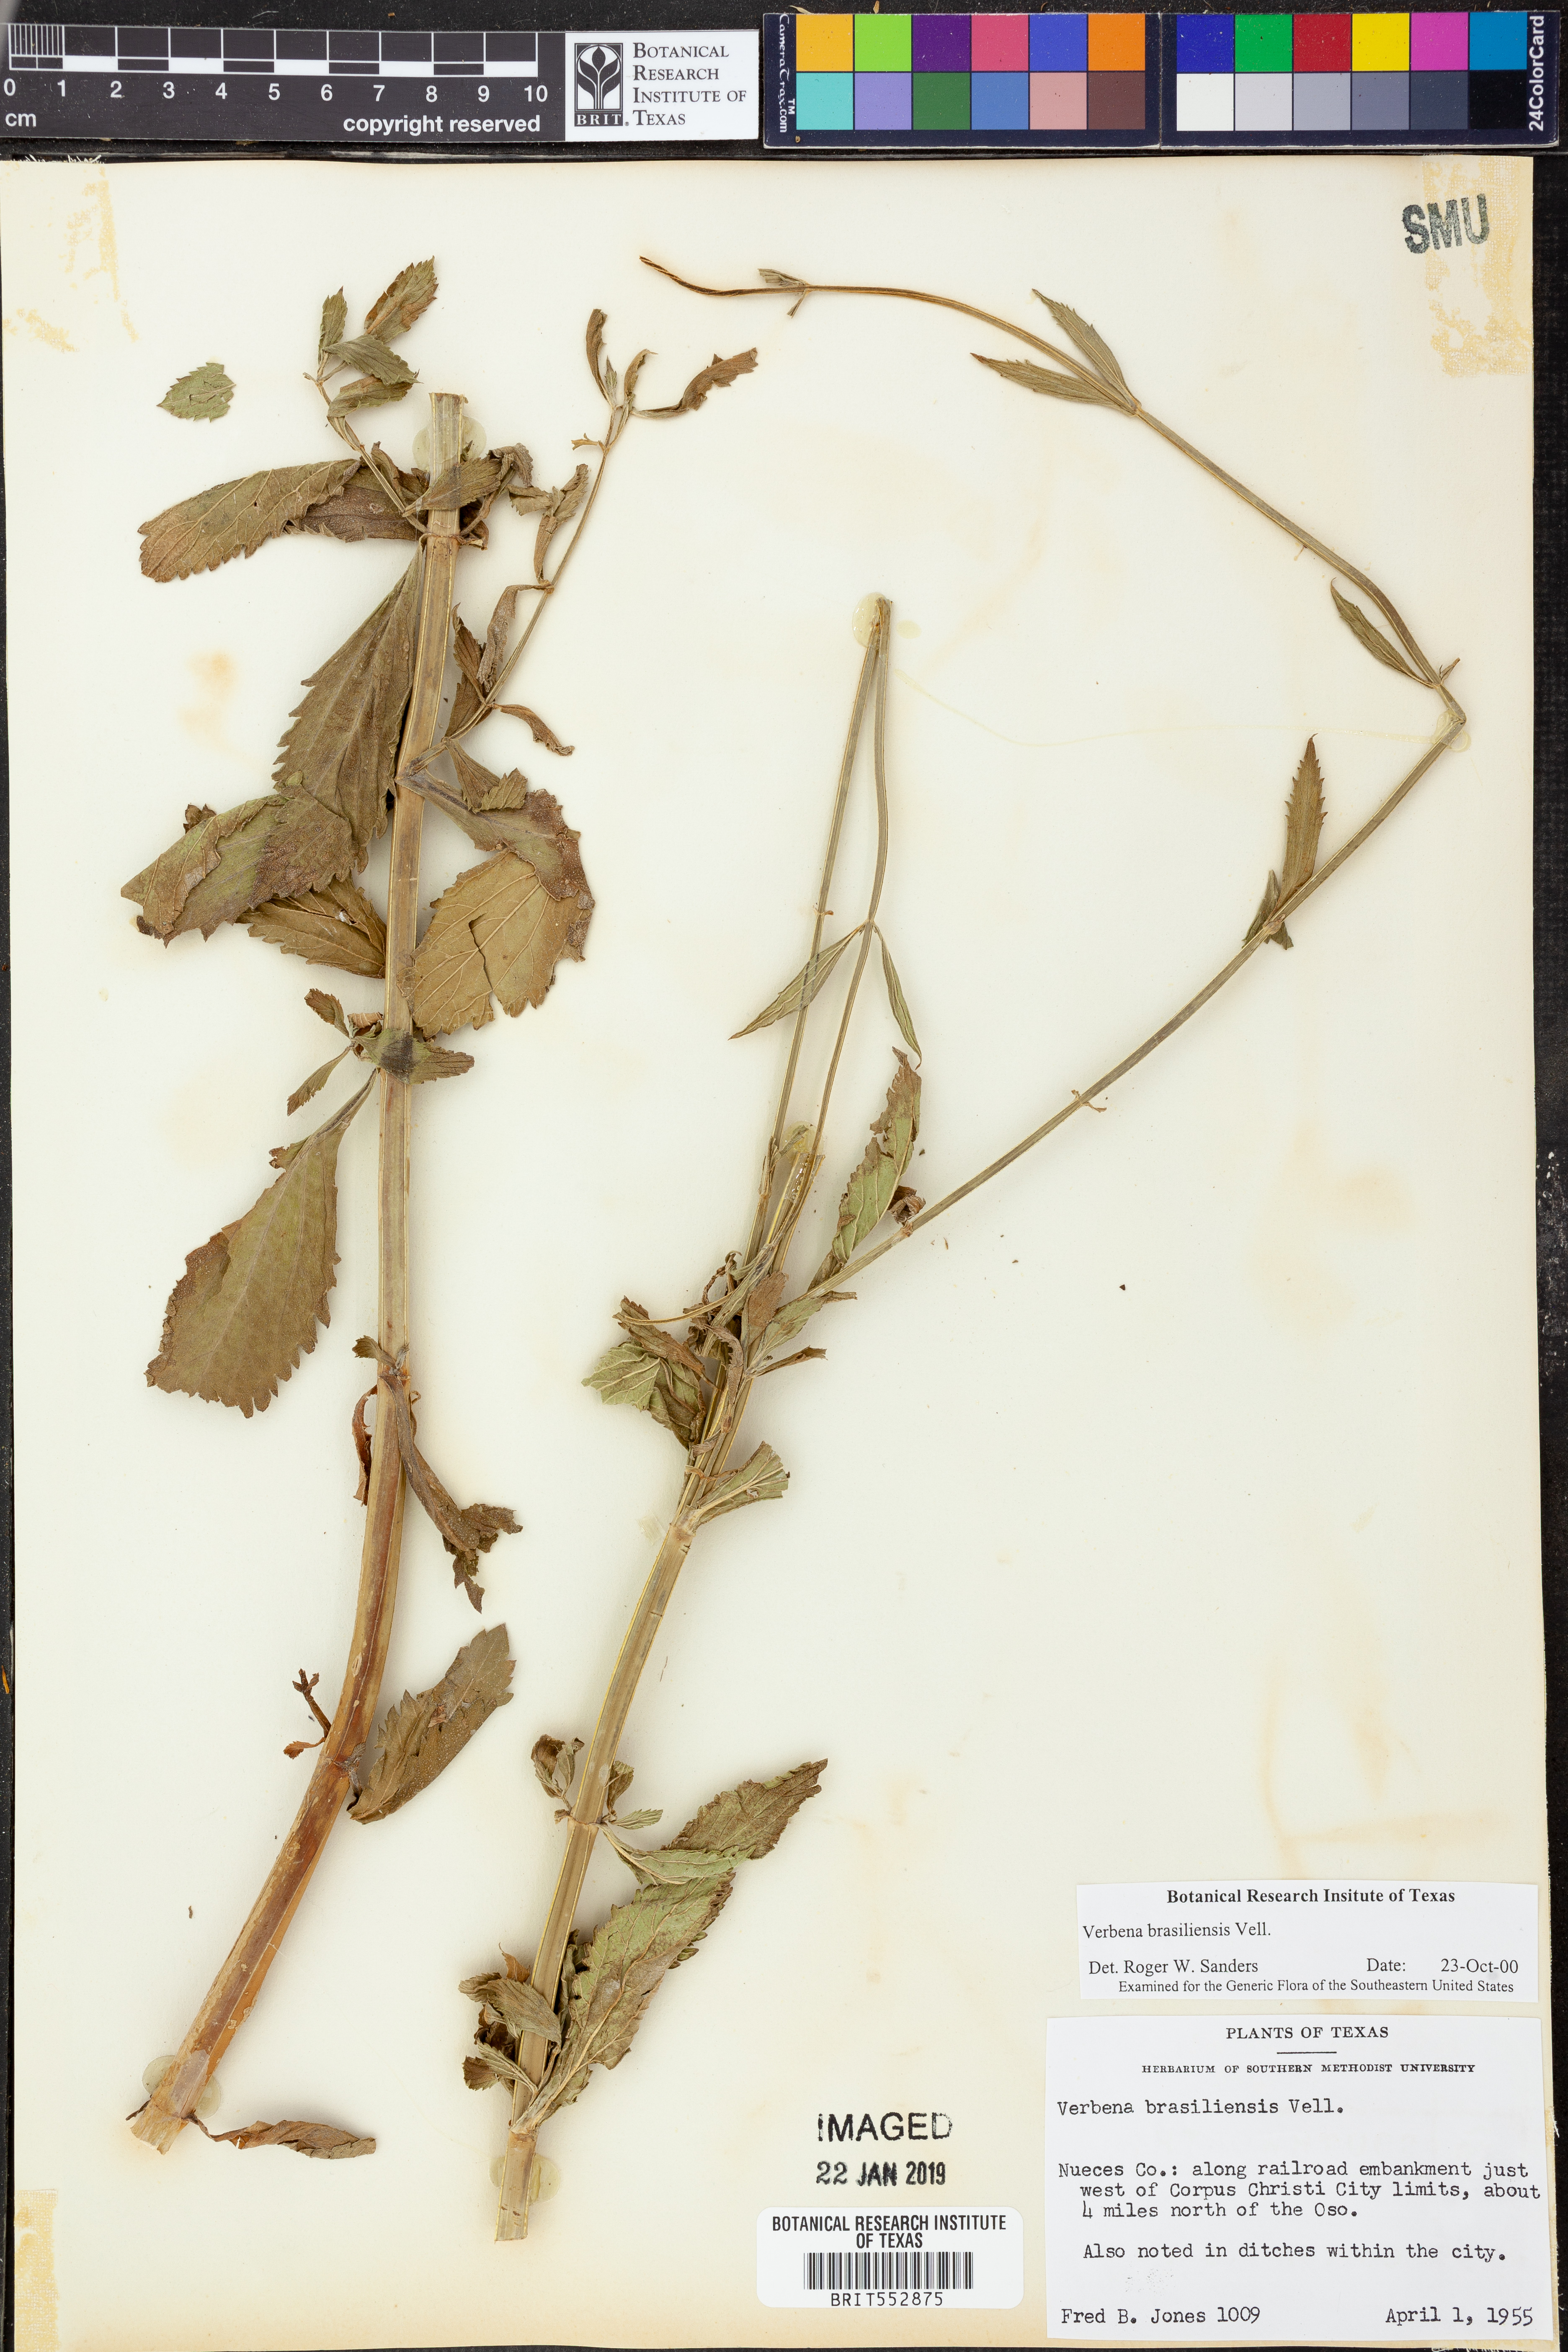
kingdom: Plantae
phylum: Tracheophyta
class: Magnoliopsida
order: Lamiales
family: Verbenaceae
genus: Verbena
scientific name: Verbena brasiliensis
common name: Brazilian vervain
